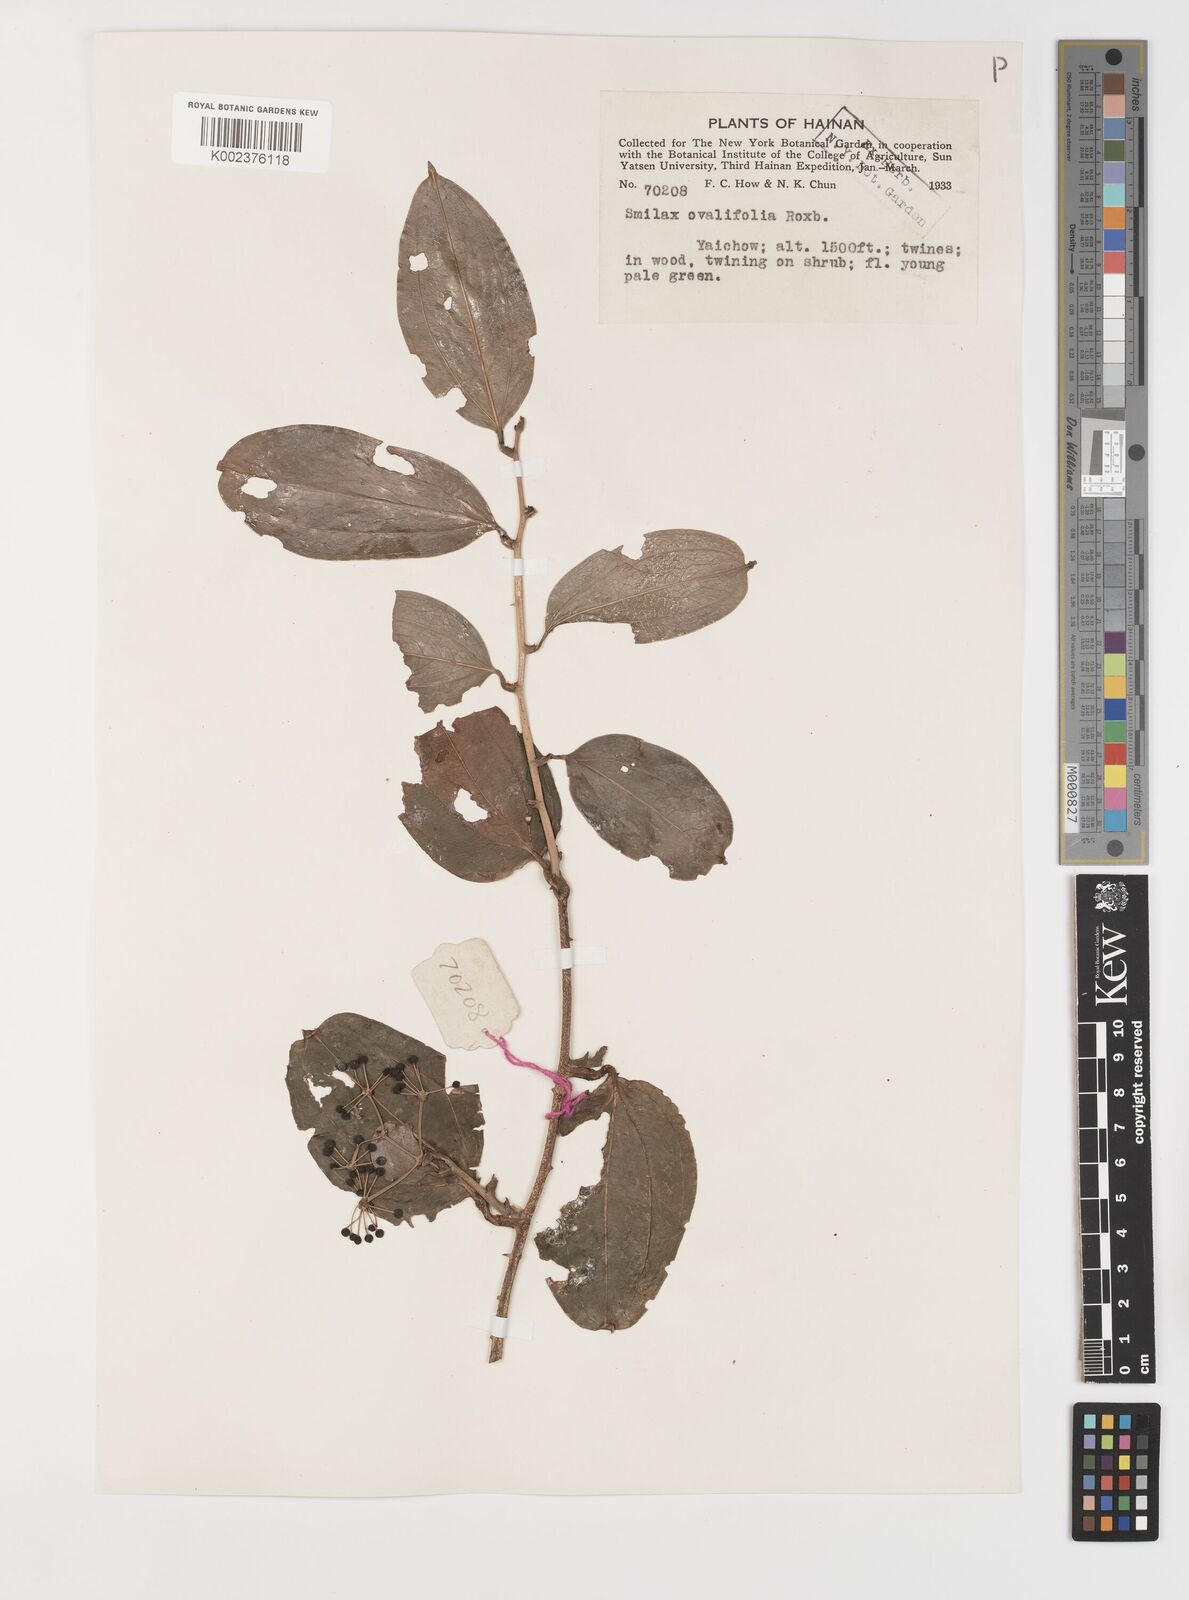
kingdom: Plantae
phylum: Tracheophyta
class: Liliopsida
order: Liliales
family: Smilacaceae
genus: Smilax
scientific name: Smilax ovalifolia
